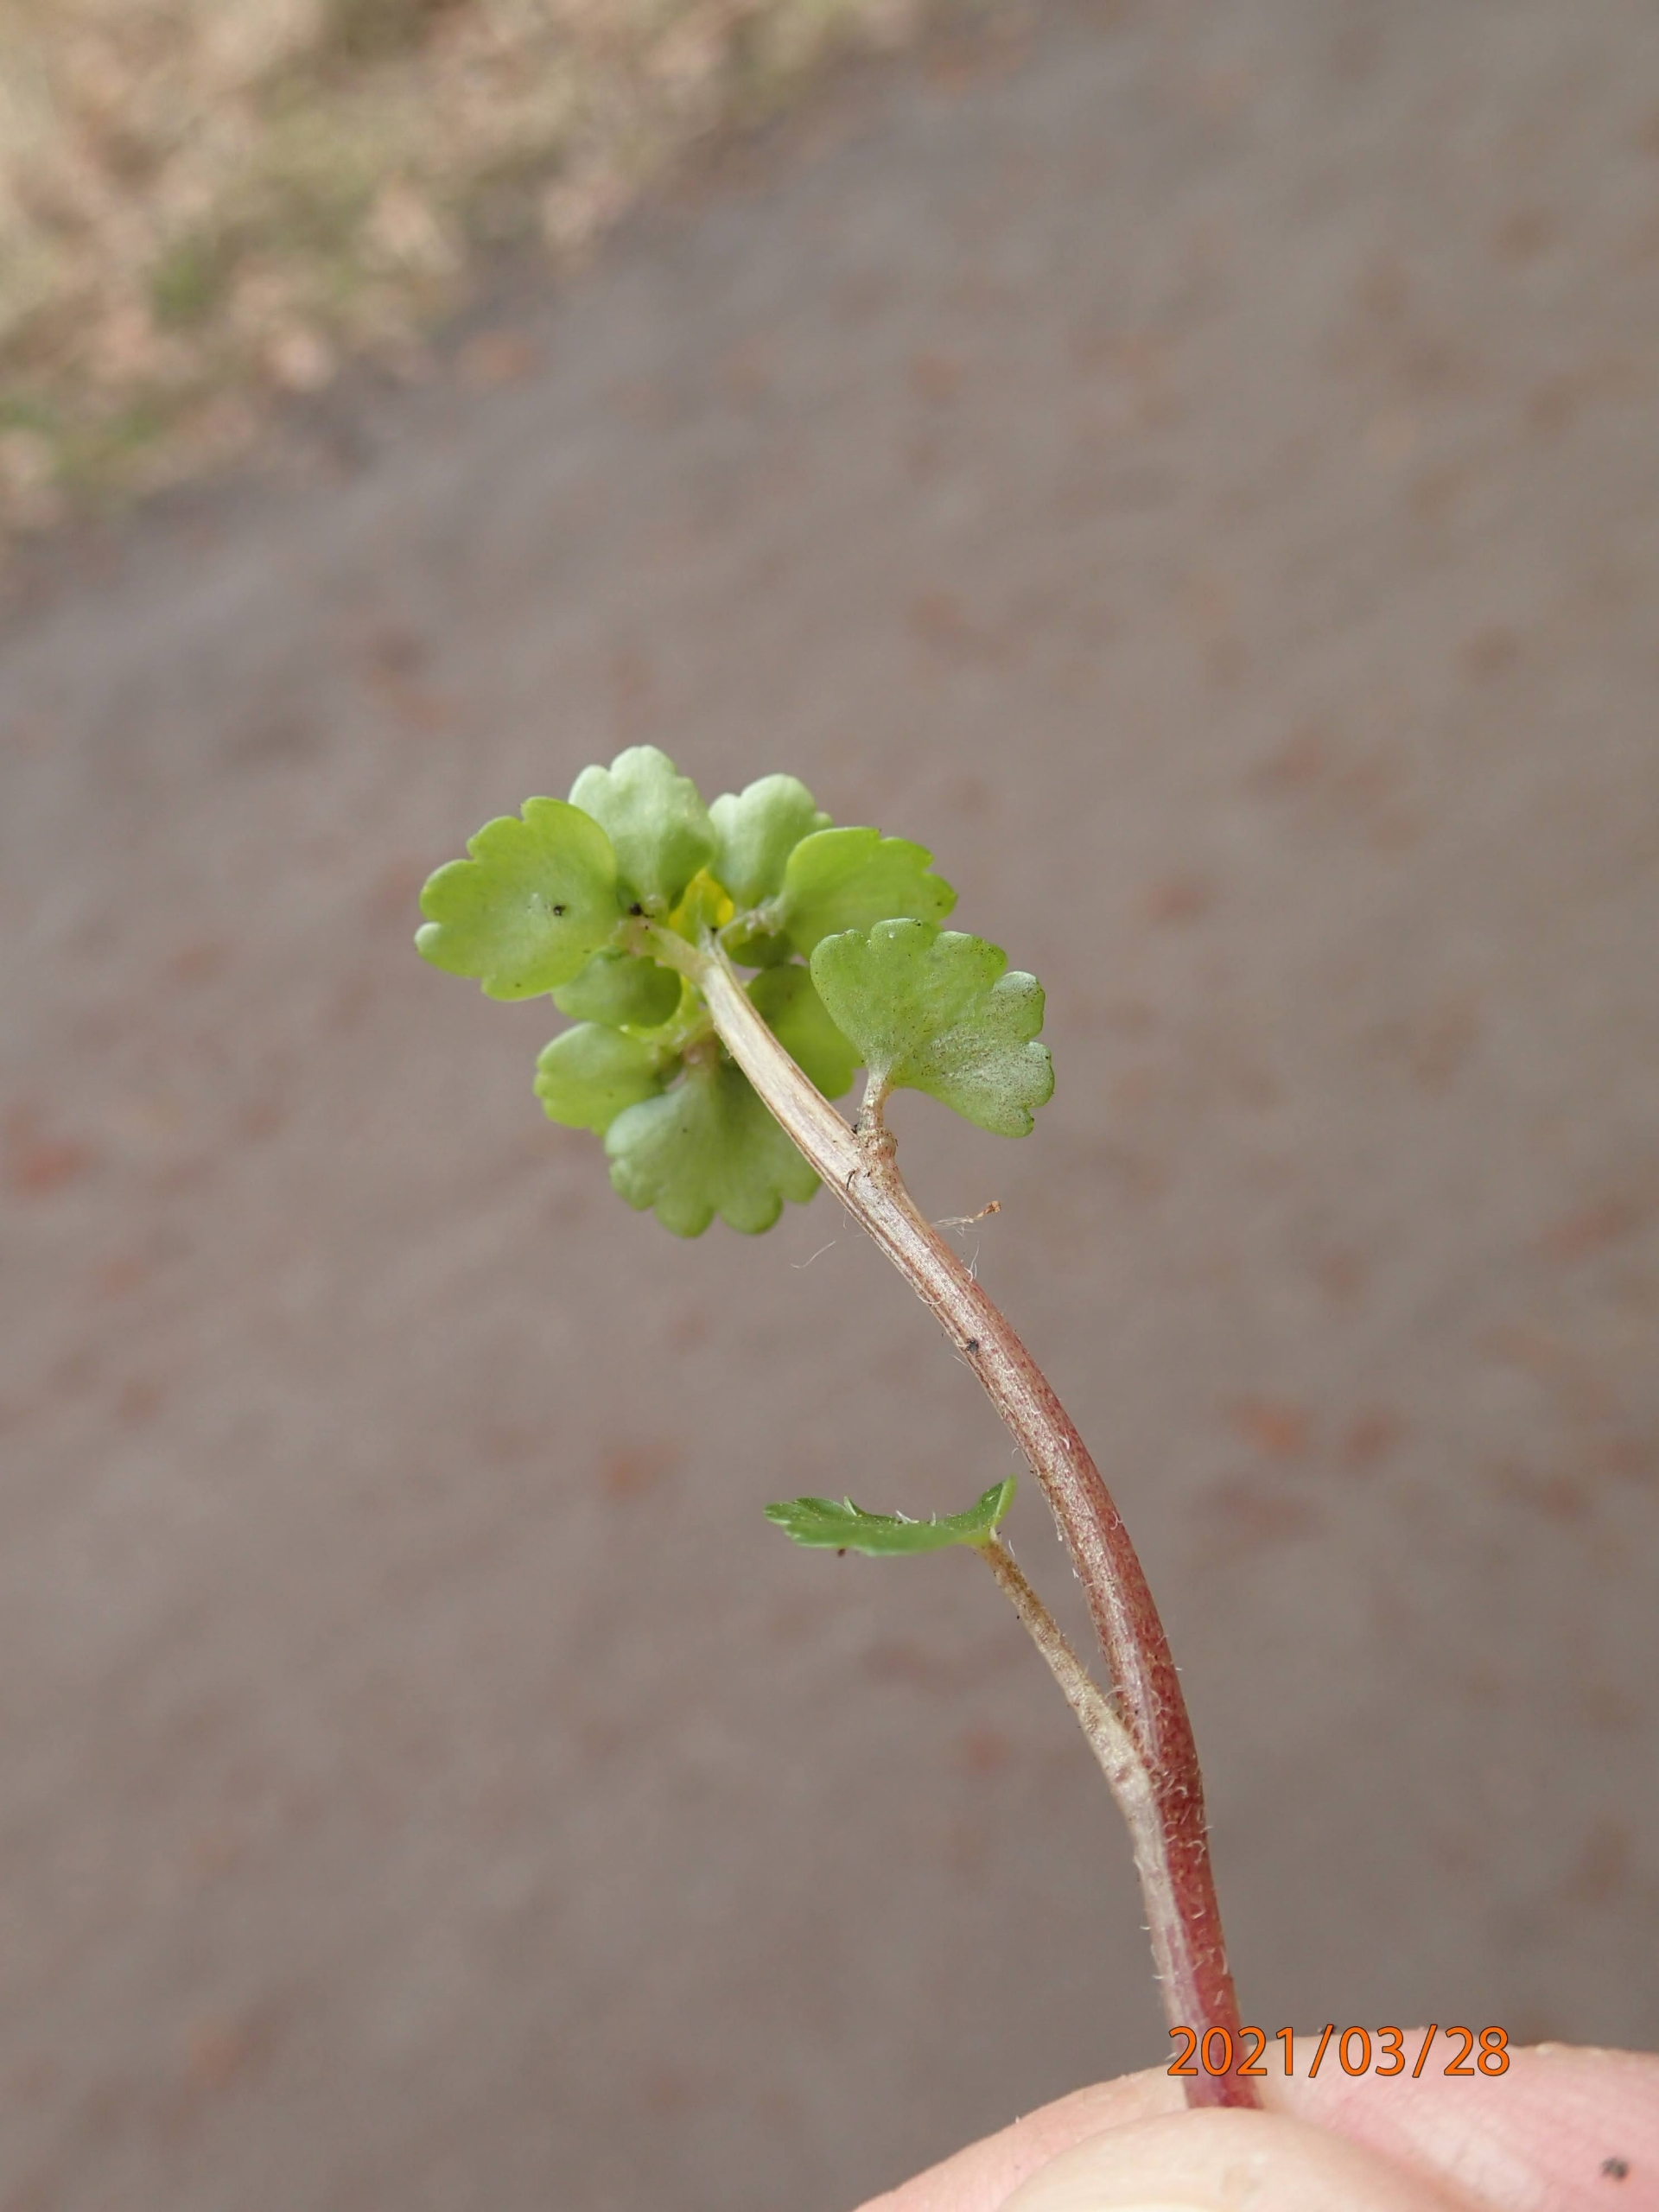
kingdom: Plantae
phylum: Tracheophyta
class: Magnoliopsida
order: Saxifragales
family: Saxifragaceae
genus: Chrysosplenium
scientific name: Chrysosplenium alternifolium
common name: Almindelig milturt
